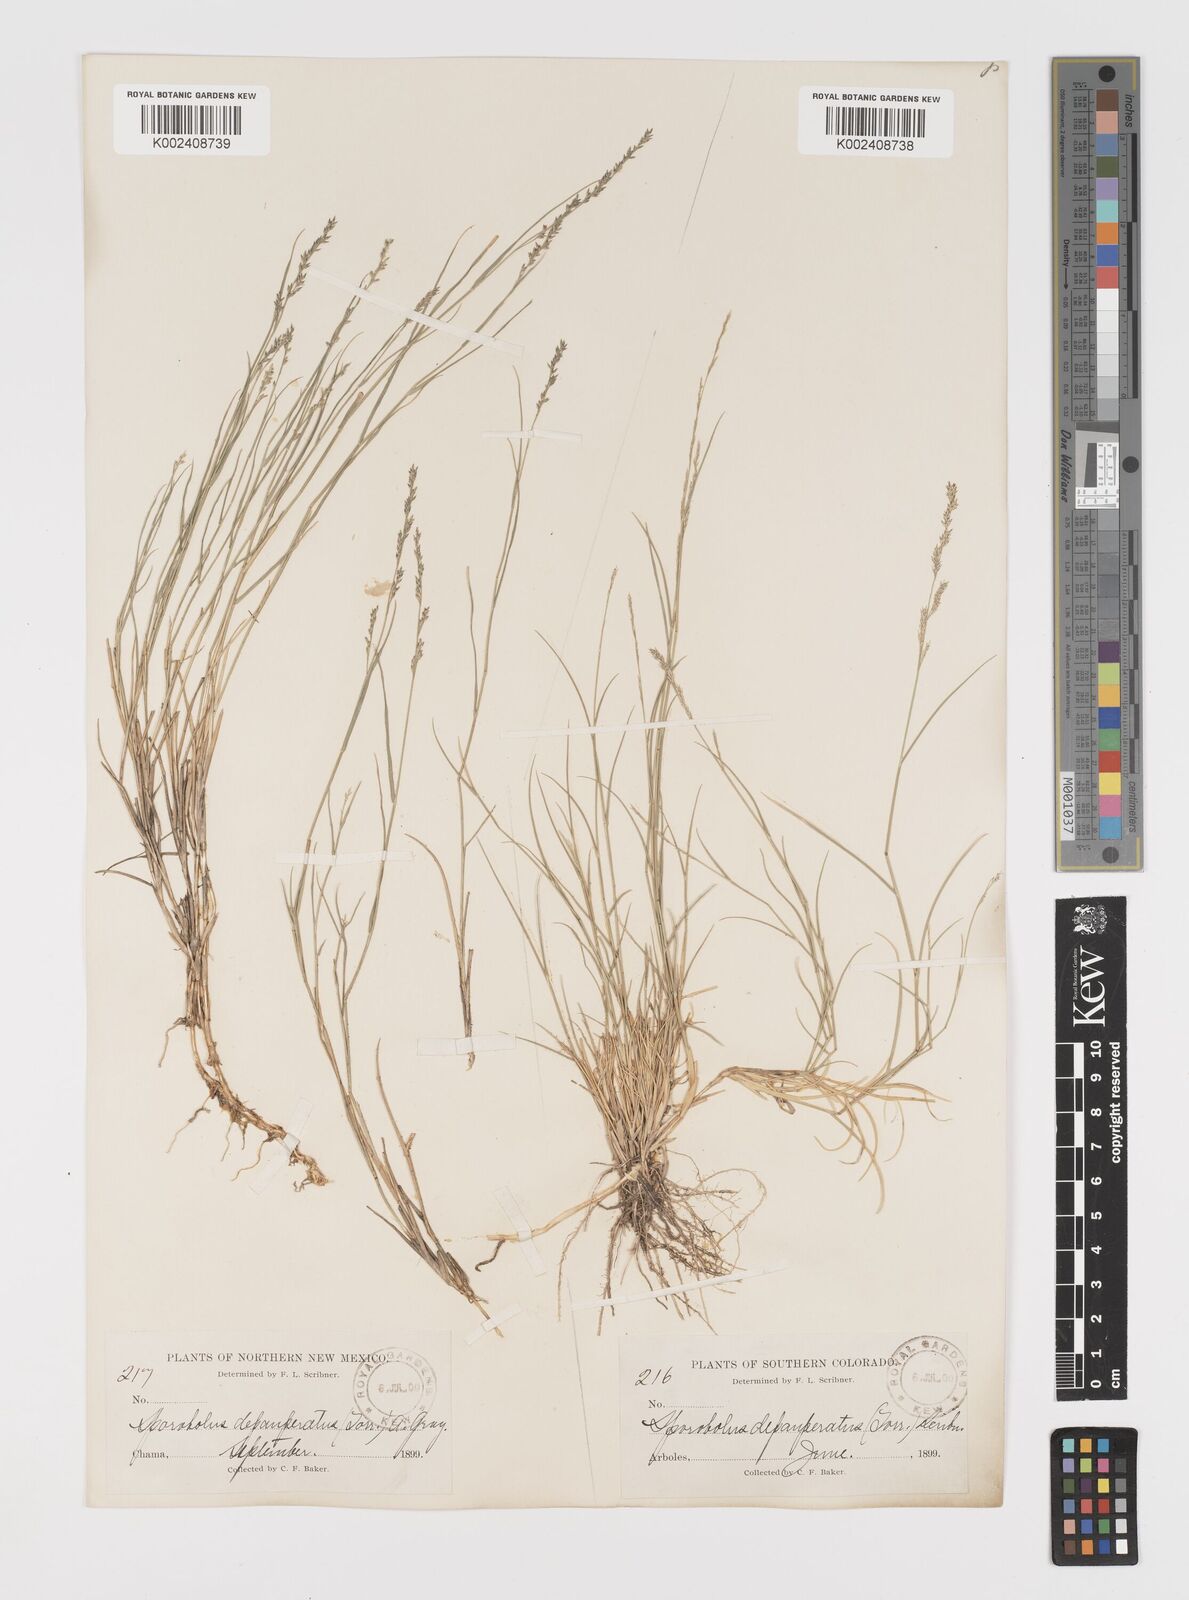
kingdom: Plantae
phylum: Tracheophyta
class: Liliopsida
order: Poales
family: Poaceae
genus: Muhlenbergia
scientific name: Muhlenbergia richardsonis
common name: Mat muhly
